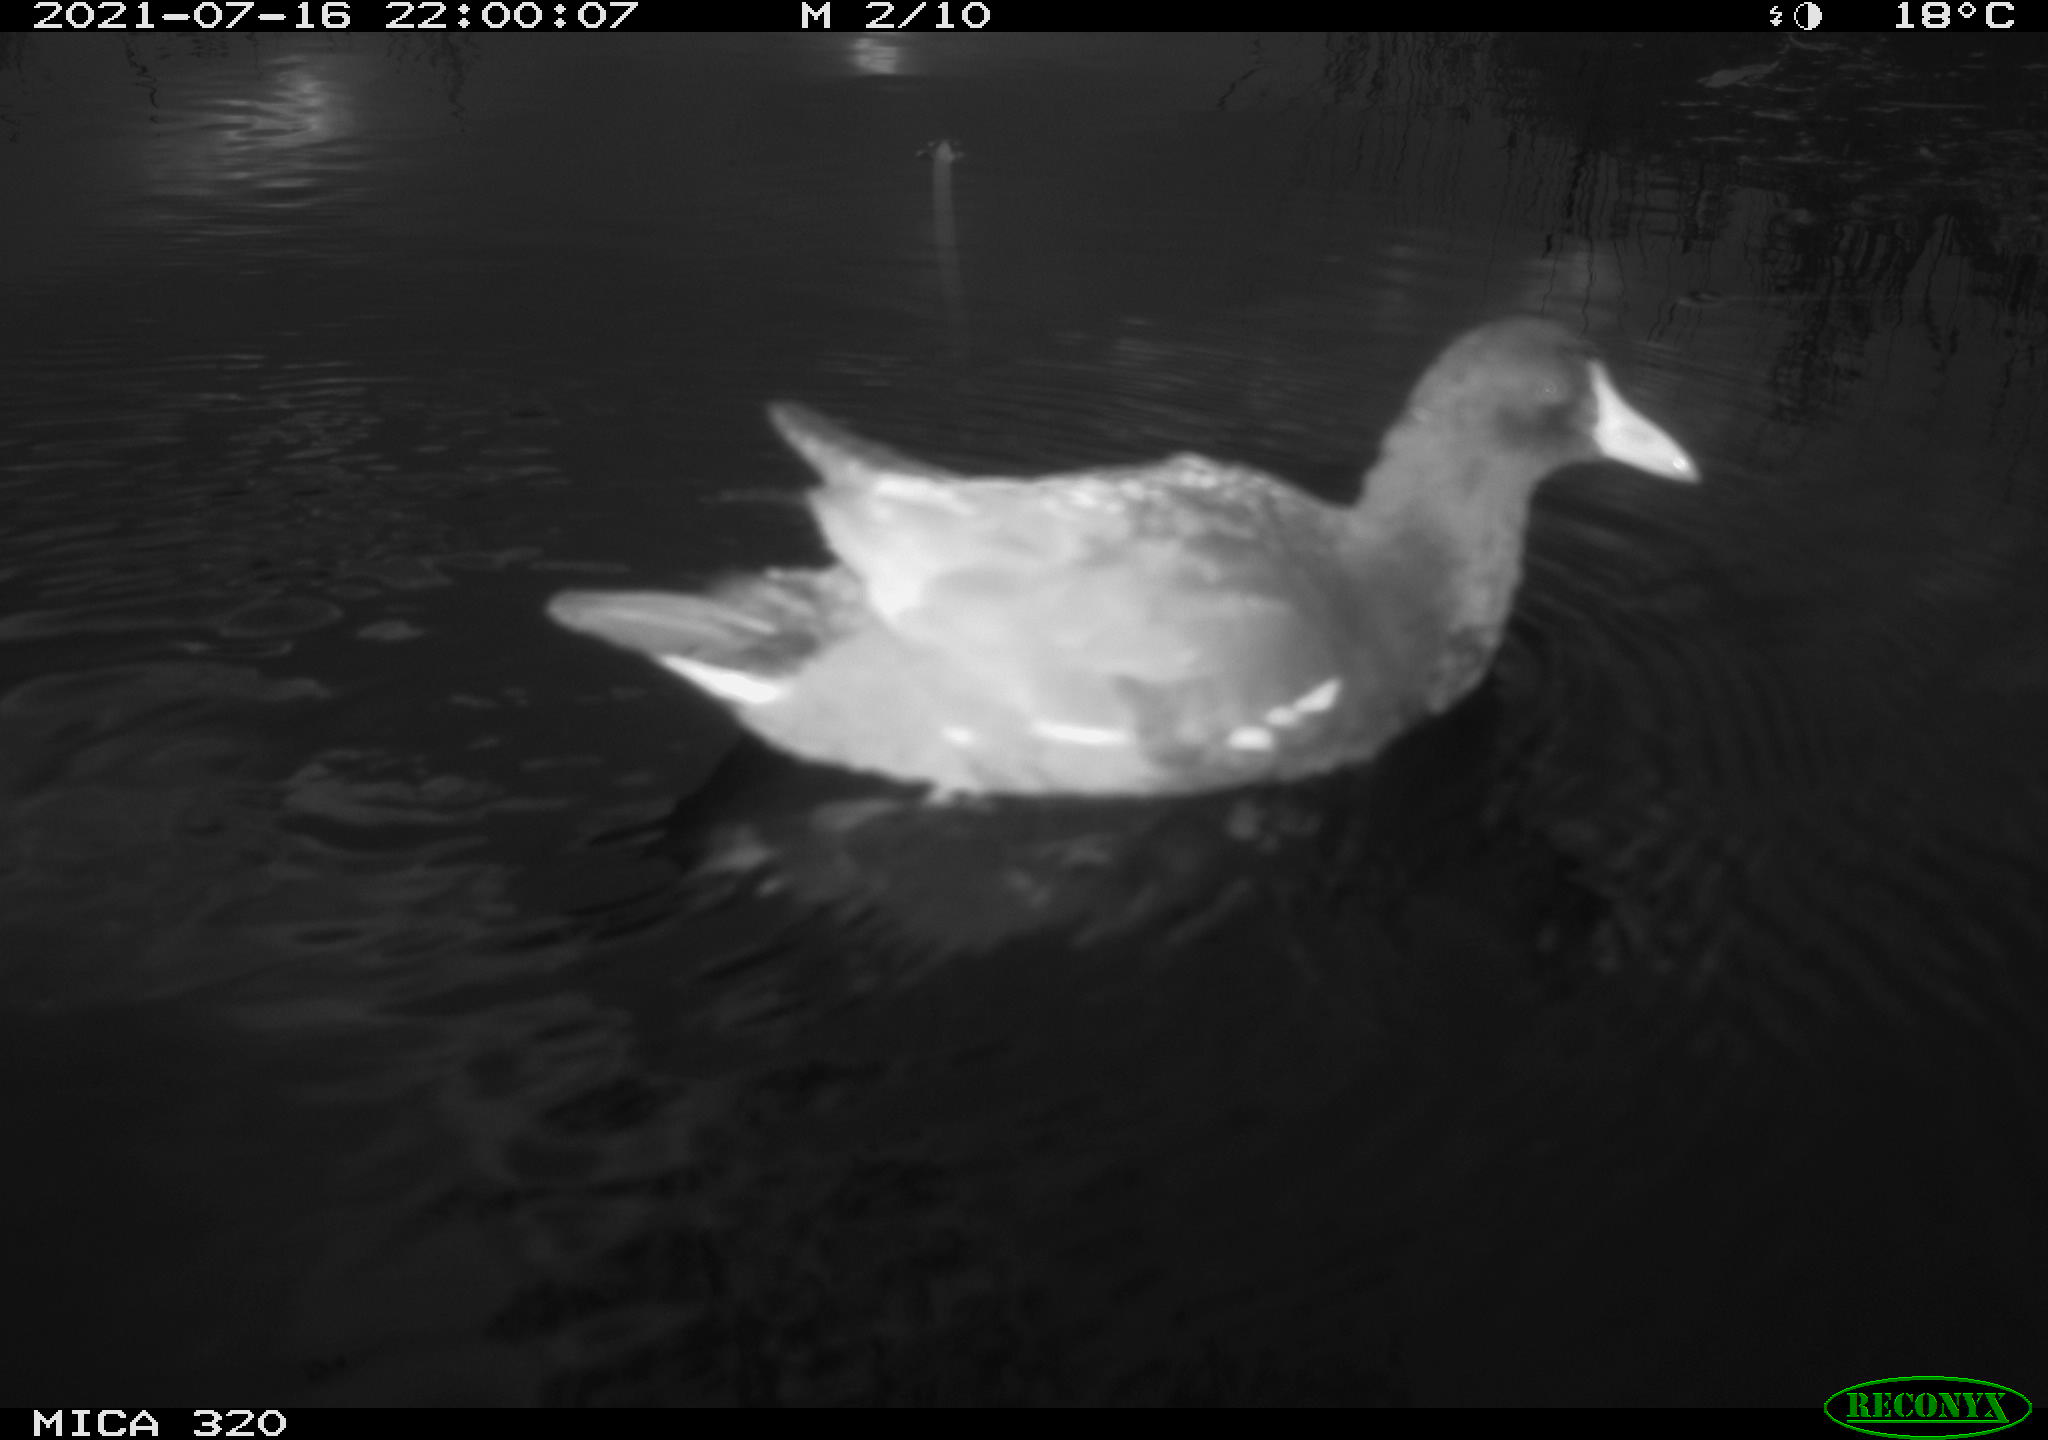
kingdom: Animalia
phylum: Chordata
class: Aves
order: Gruiformes
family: Rallidae
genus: Gallinula
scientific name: Gallinula chloropus
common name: Common moorhen
